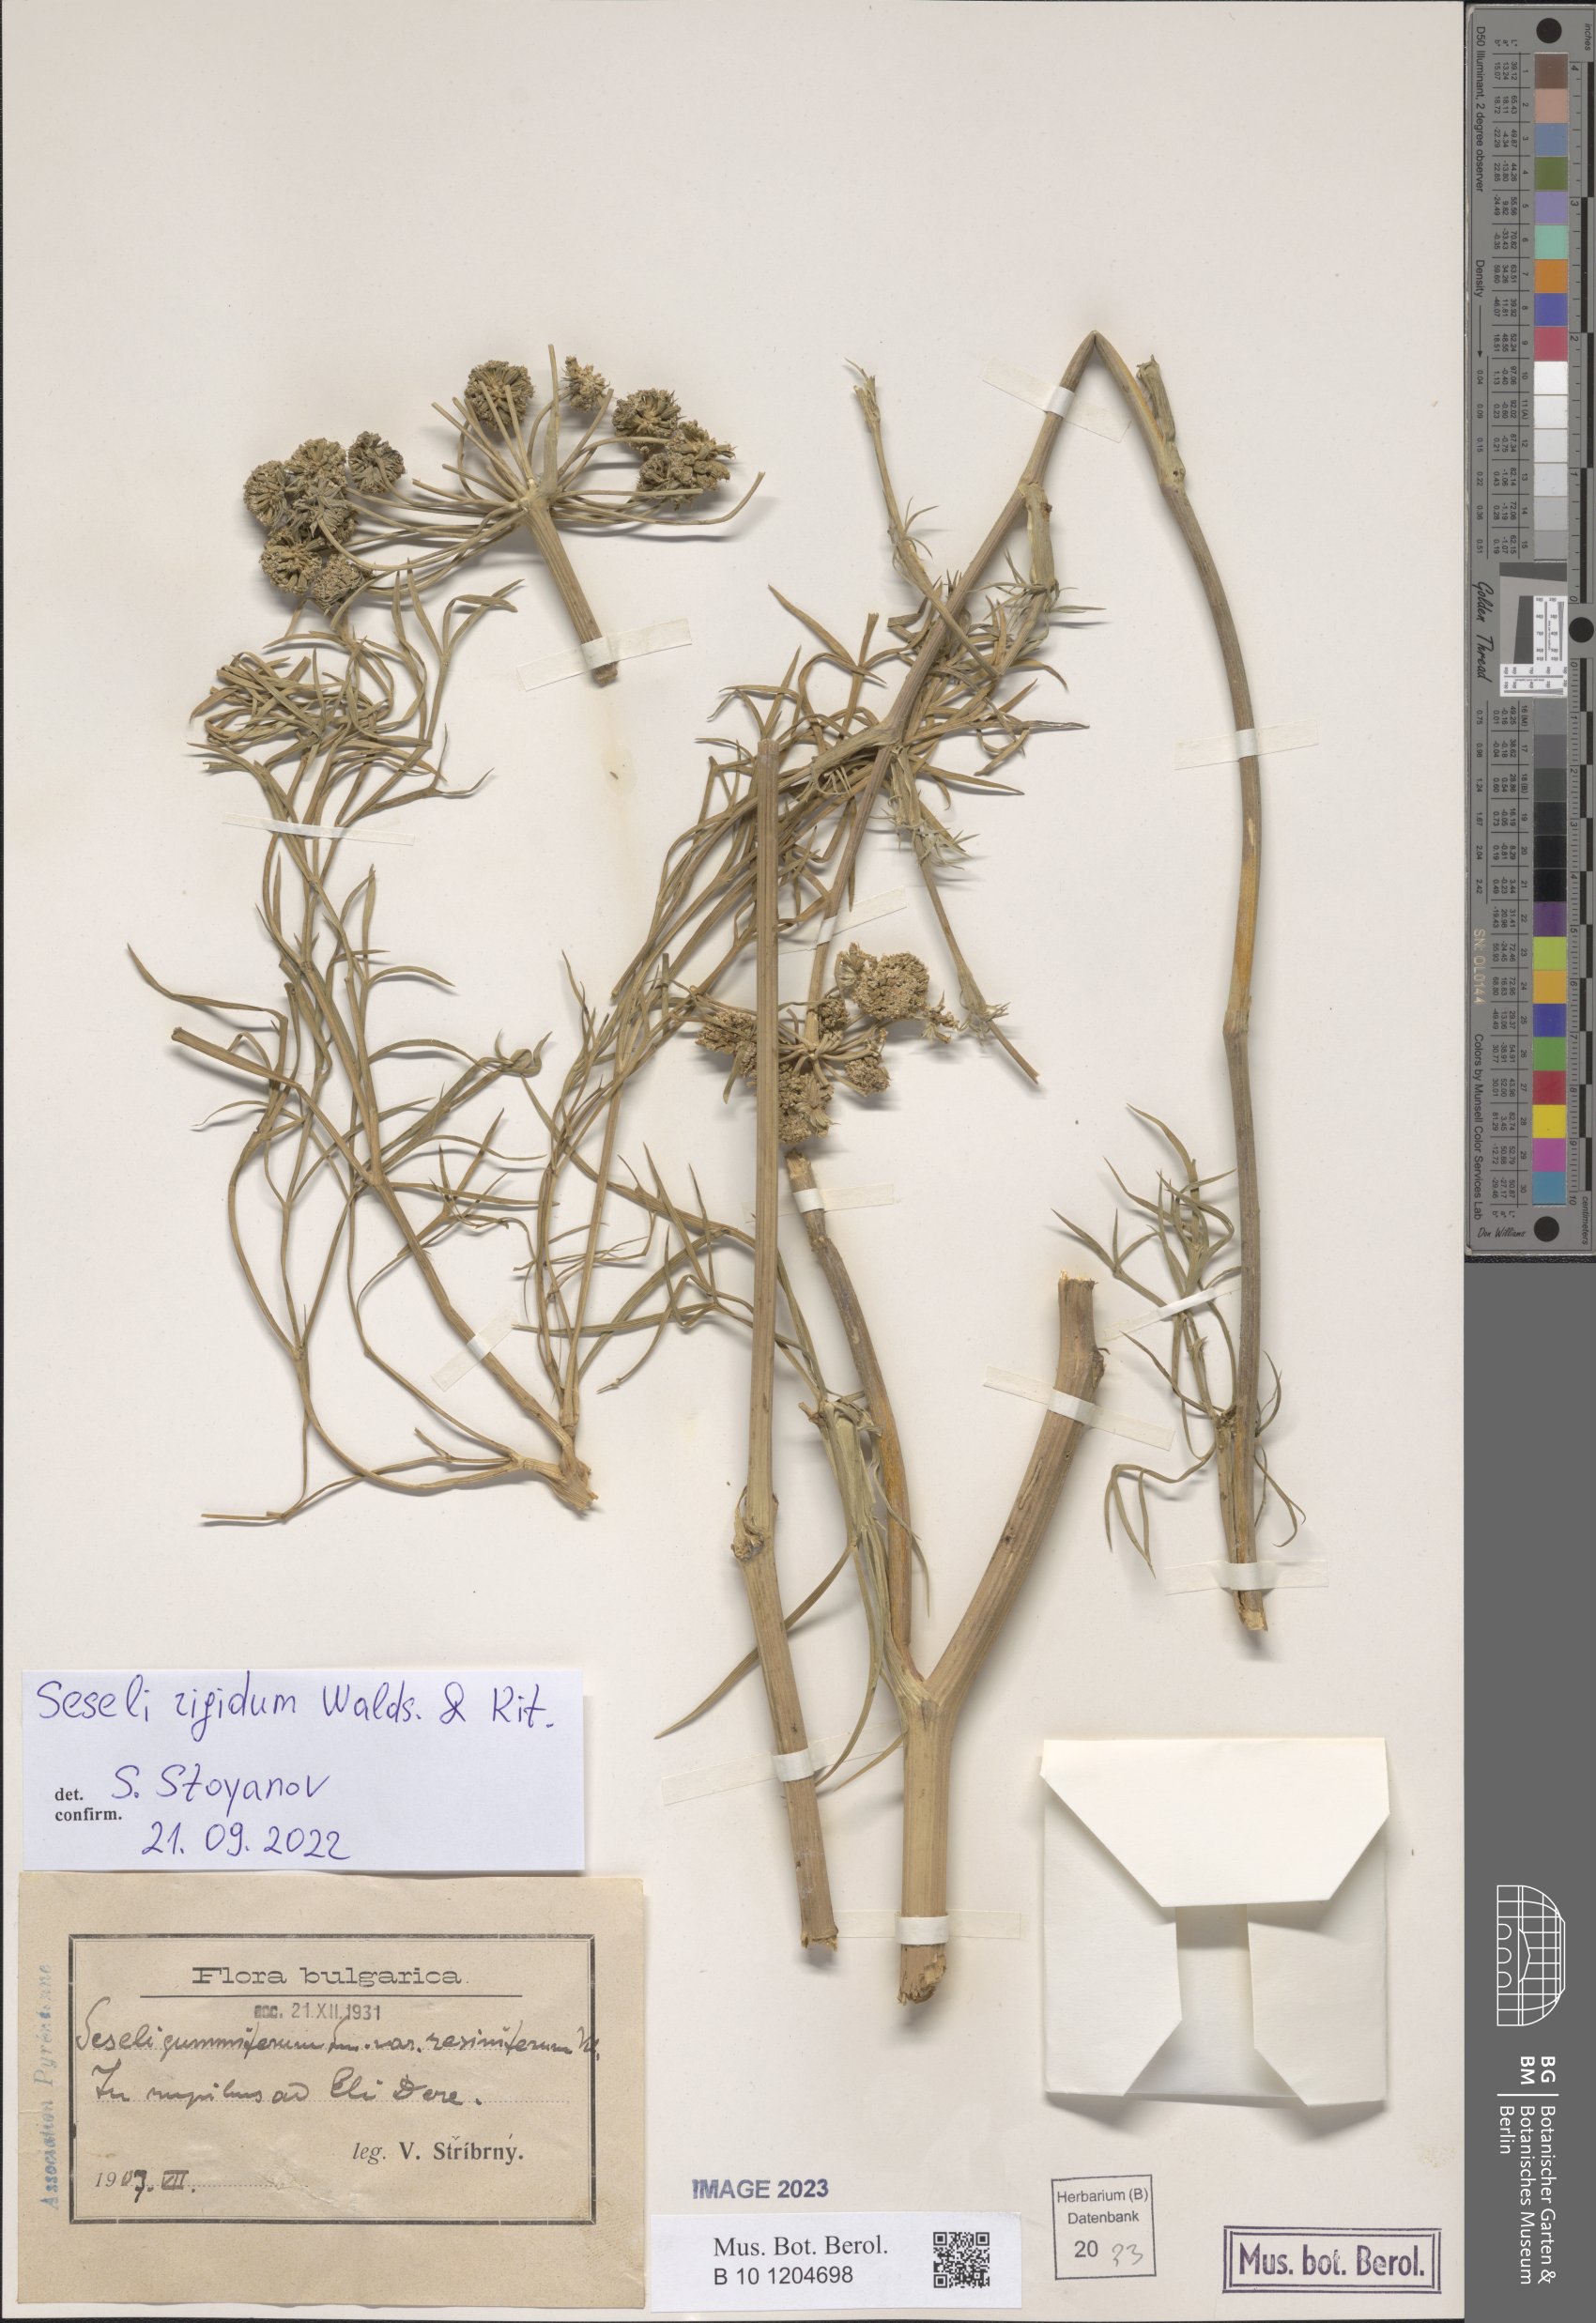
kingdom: Plantae
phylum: Tracheophyta
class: Magnoliopsida
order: Apiales
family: Apiaceae
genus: Seseli
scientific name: Seseli rigidum
